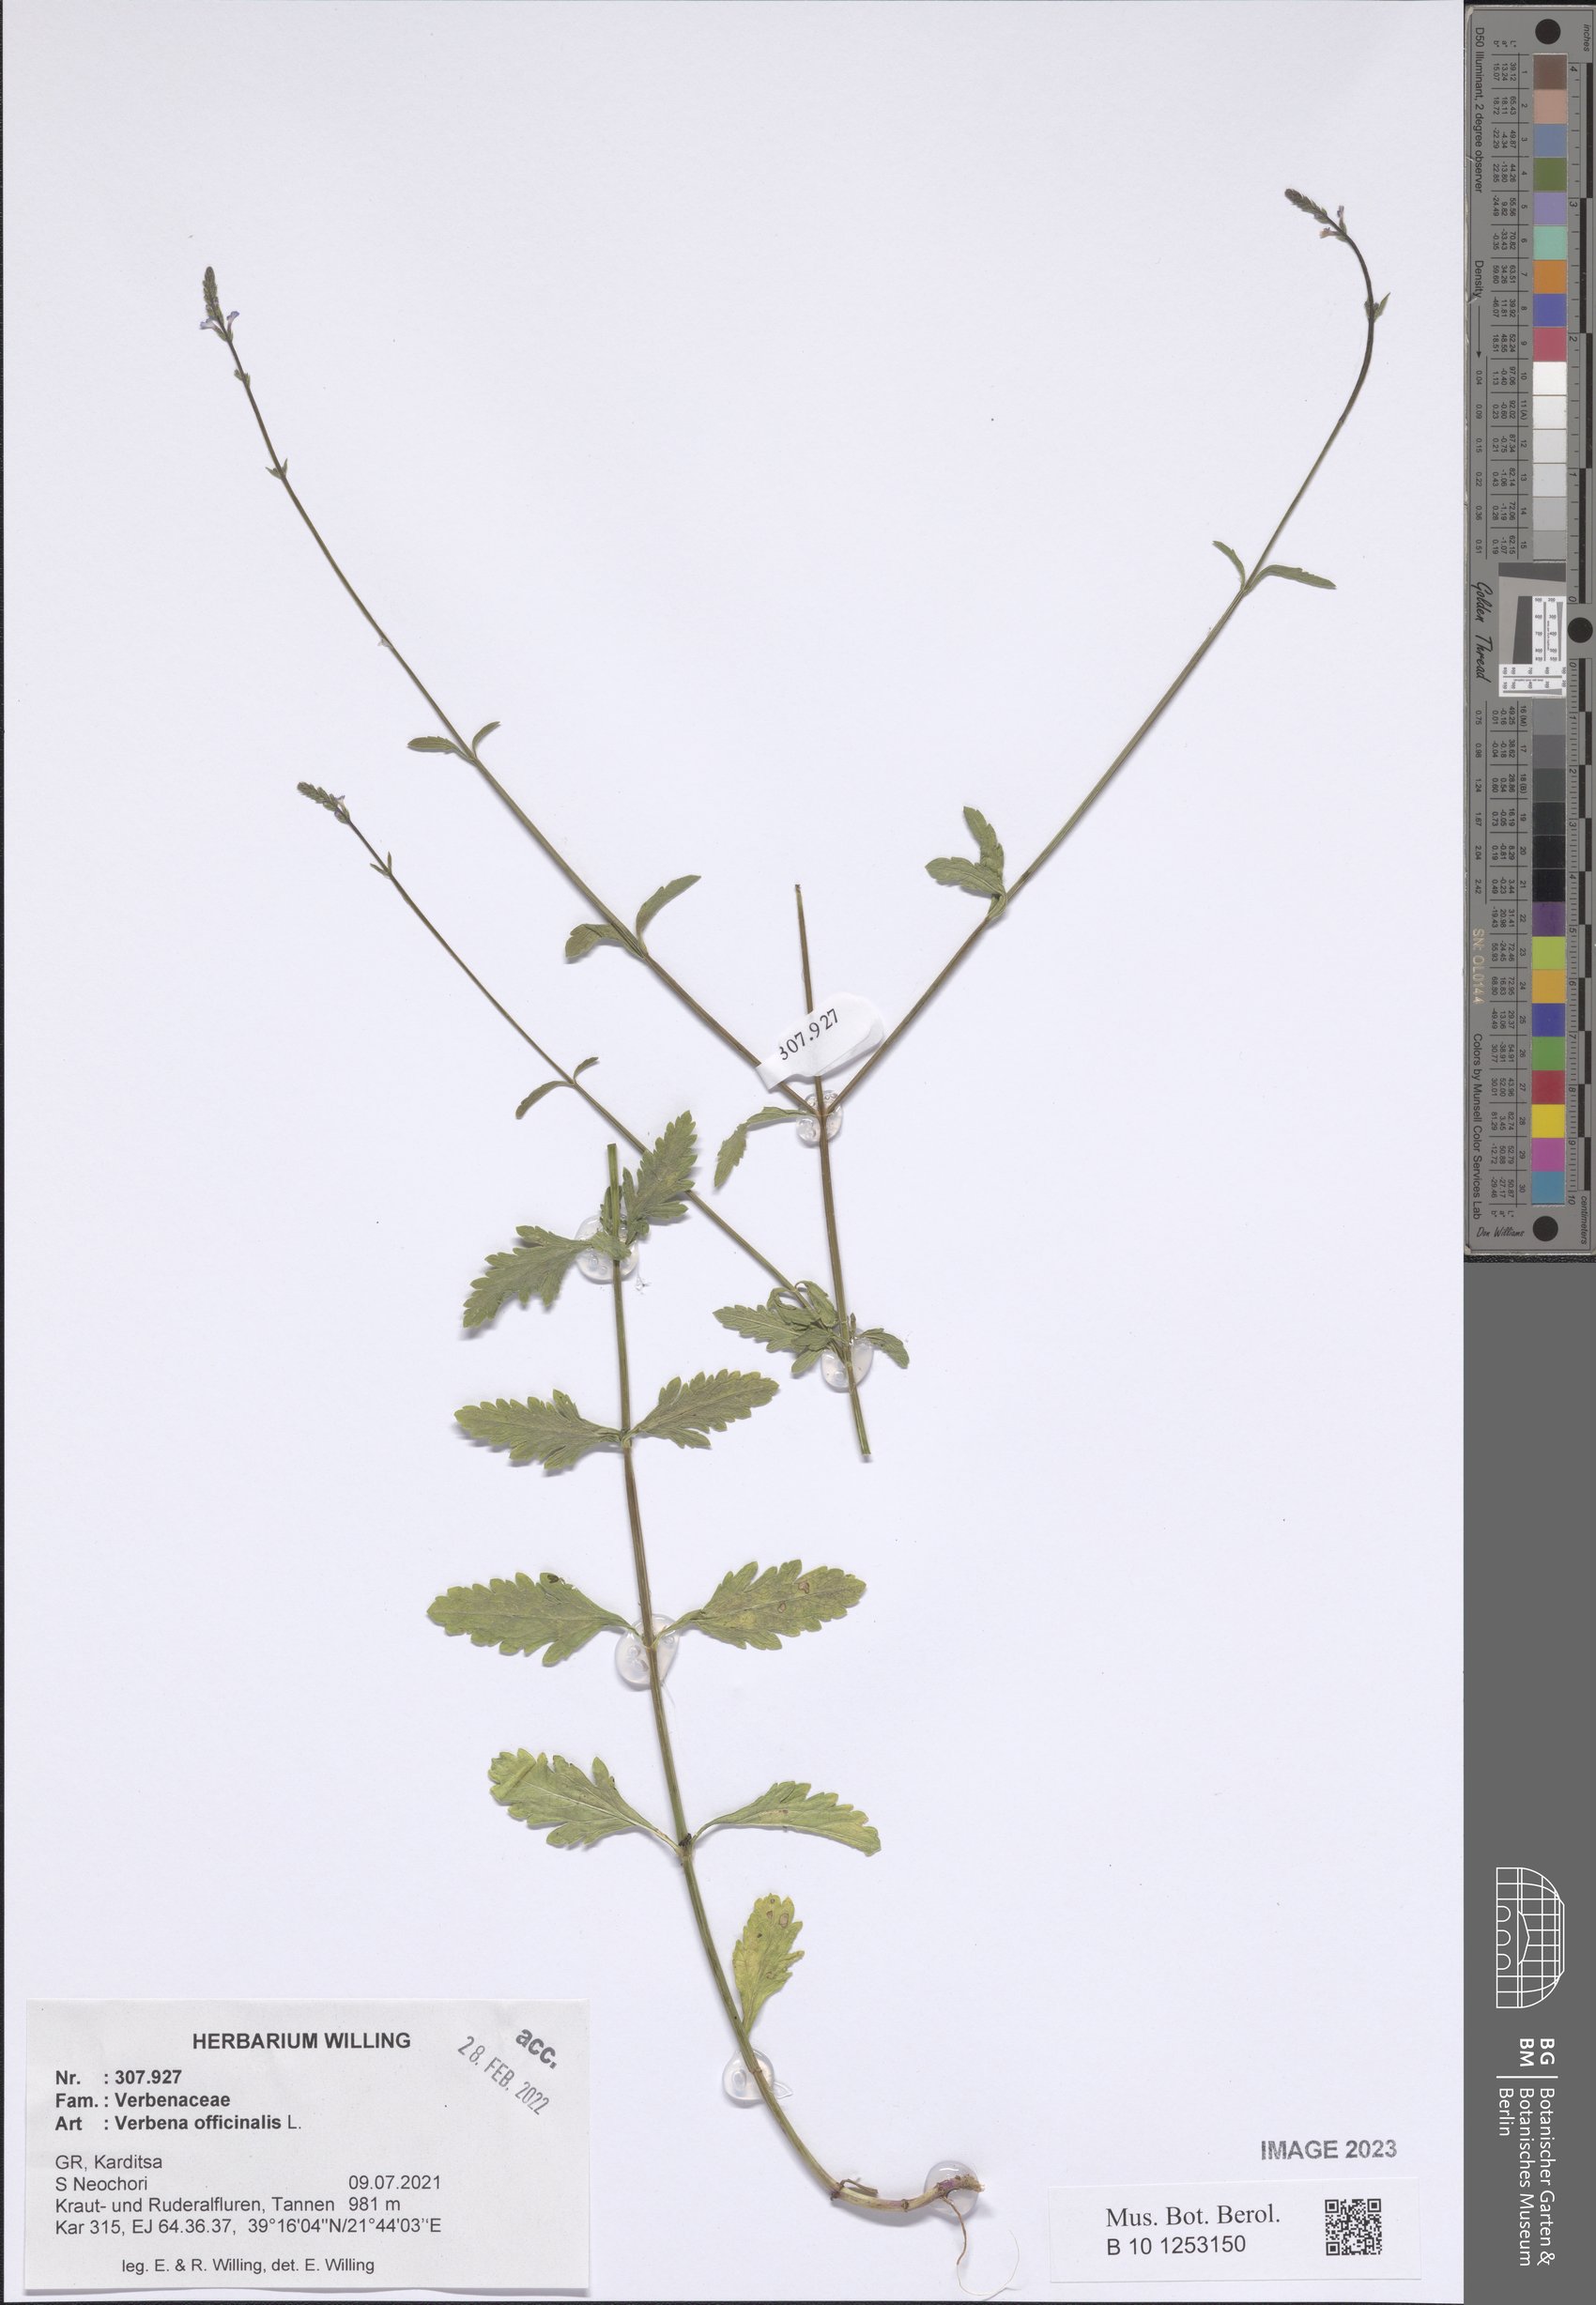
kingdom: Plantae
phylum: Tracheophyta
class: Magnoliopsida
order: Lamiales
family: Verbenaceae
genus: Verbena
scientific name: Verbena officinalis
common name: Vervain
